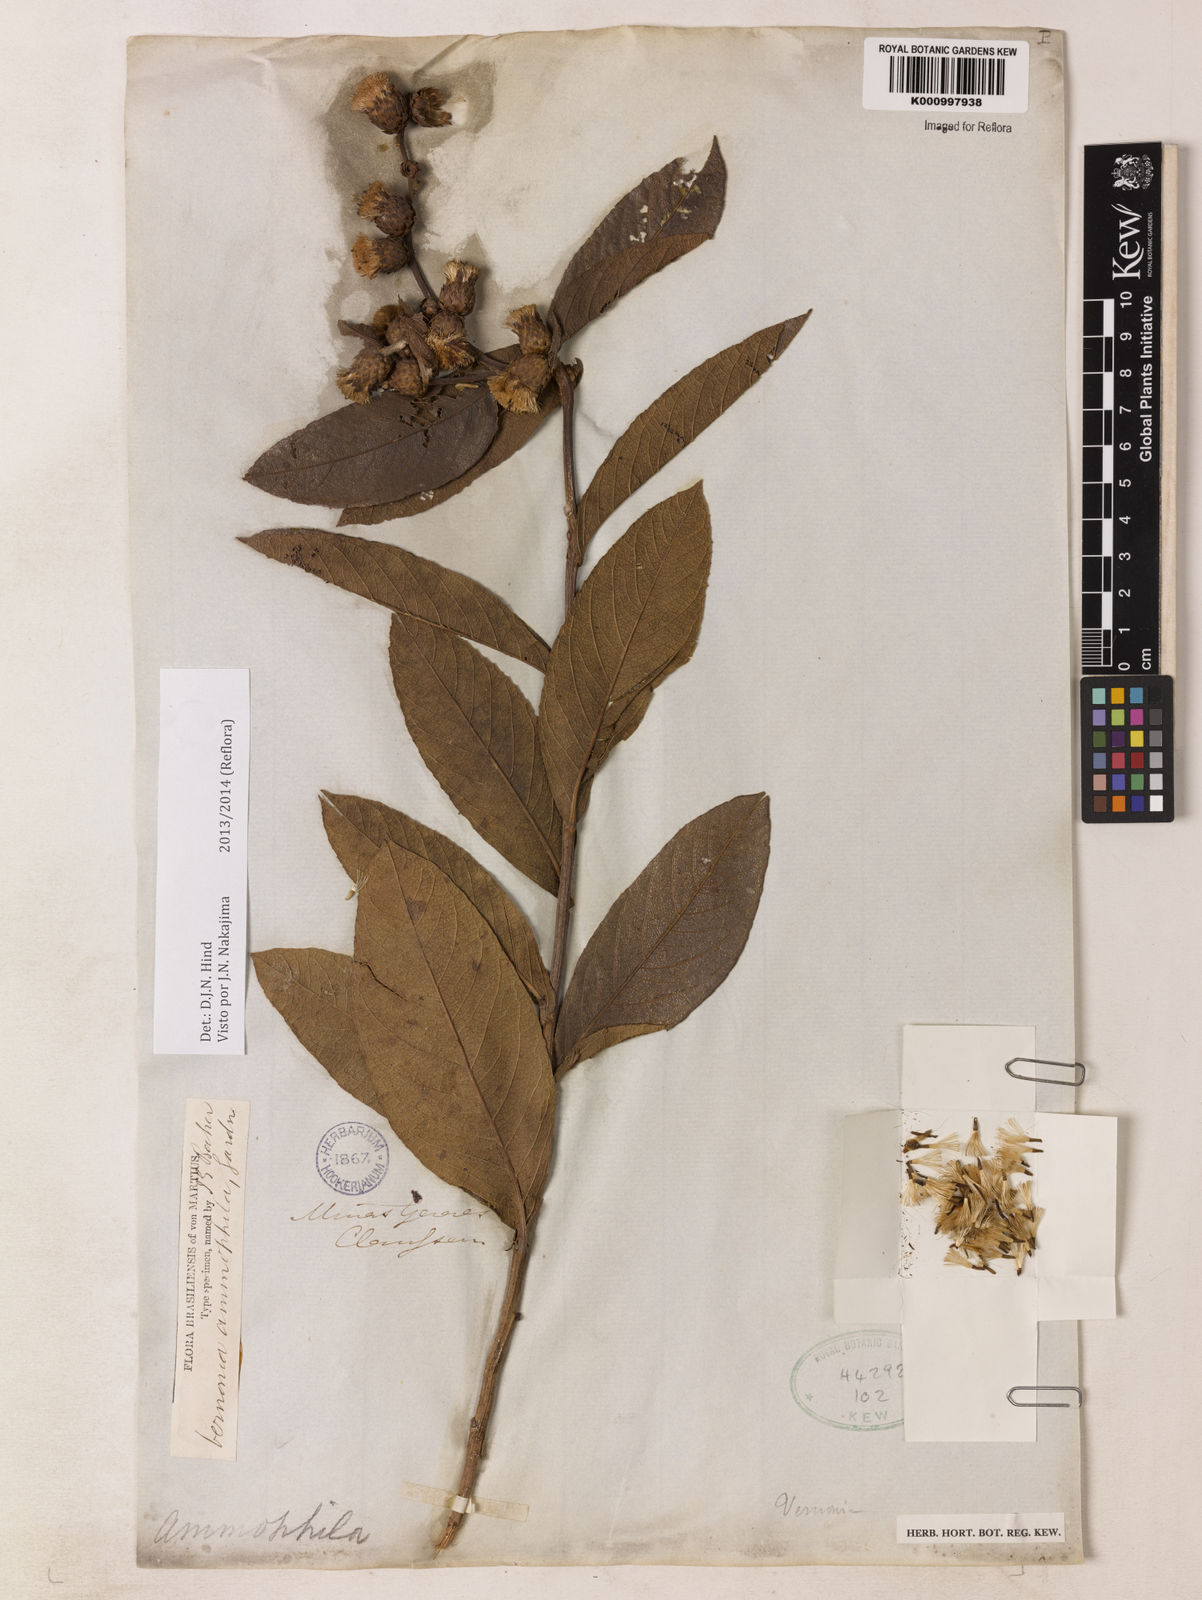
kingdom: Plantae
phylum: Tracheophyta
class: Magnoliopsida
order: Asterales
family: Asteraceae
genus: Lessingianthus
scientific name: Lessingianthus ammophilus
